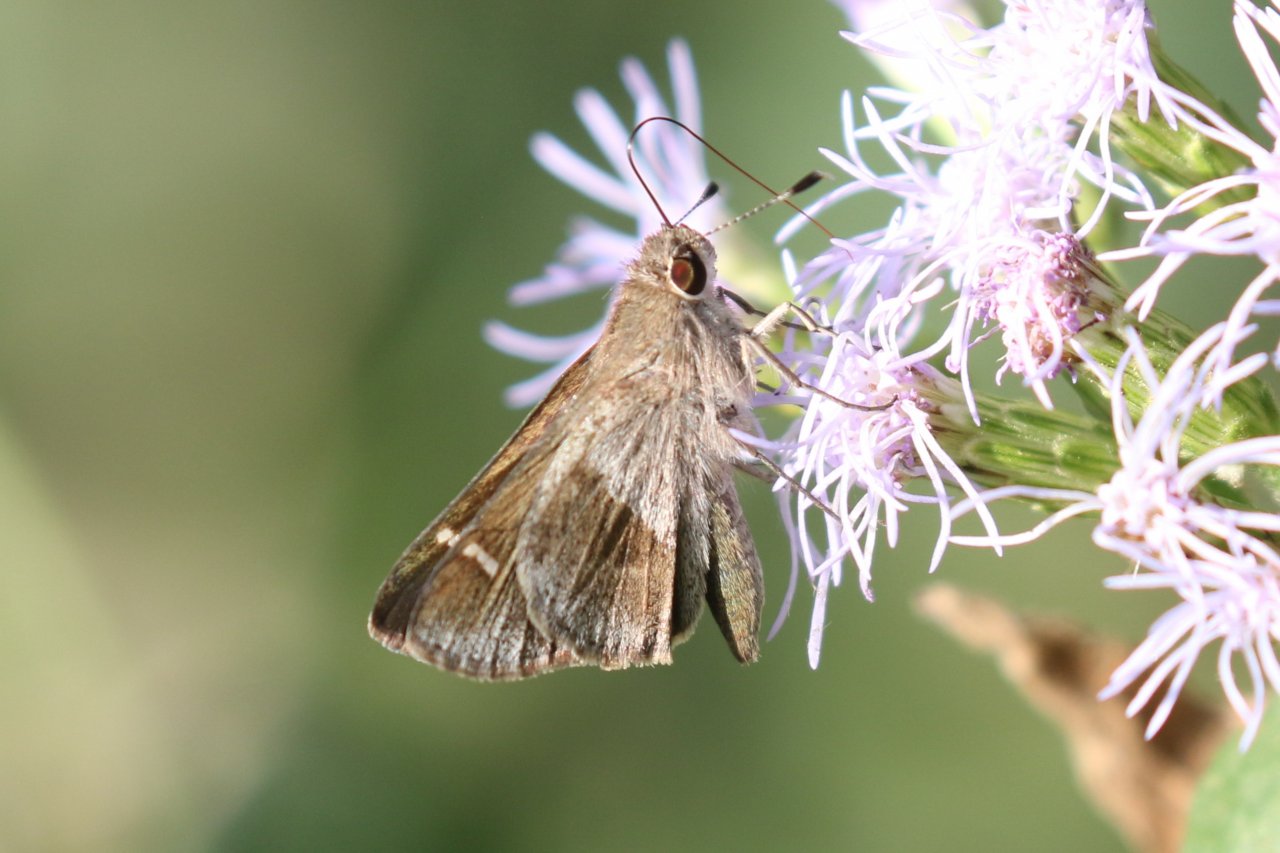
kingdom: Animalia
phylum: Arthropoda
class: Insecta
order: Lepidoptera
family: Hesperiidae
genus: Lerodea
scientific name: Lerodea arabus
